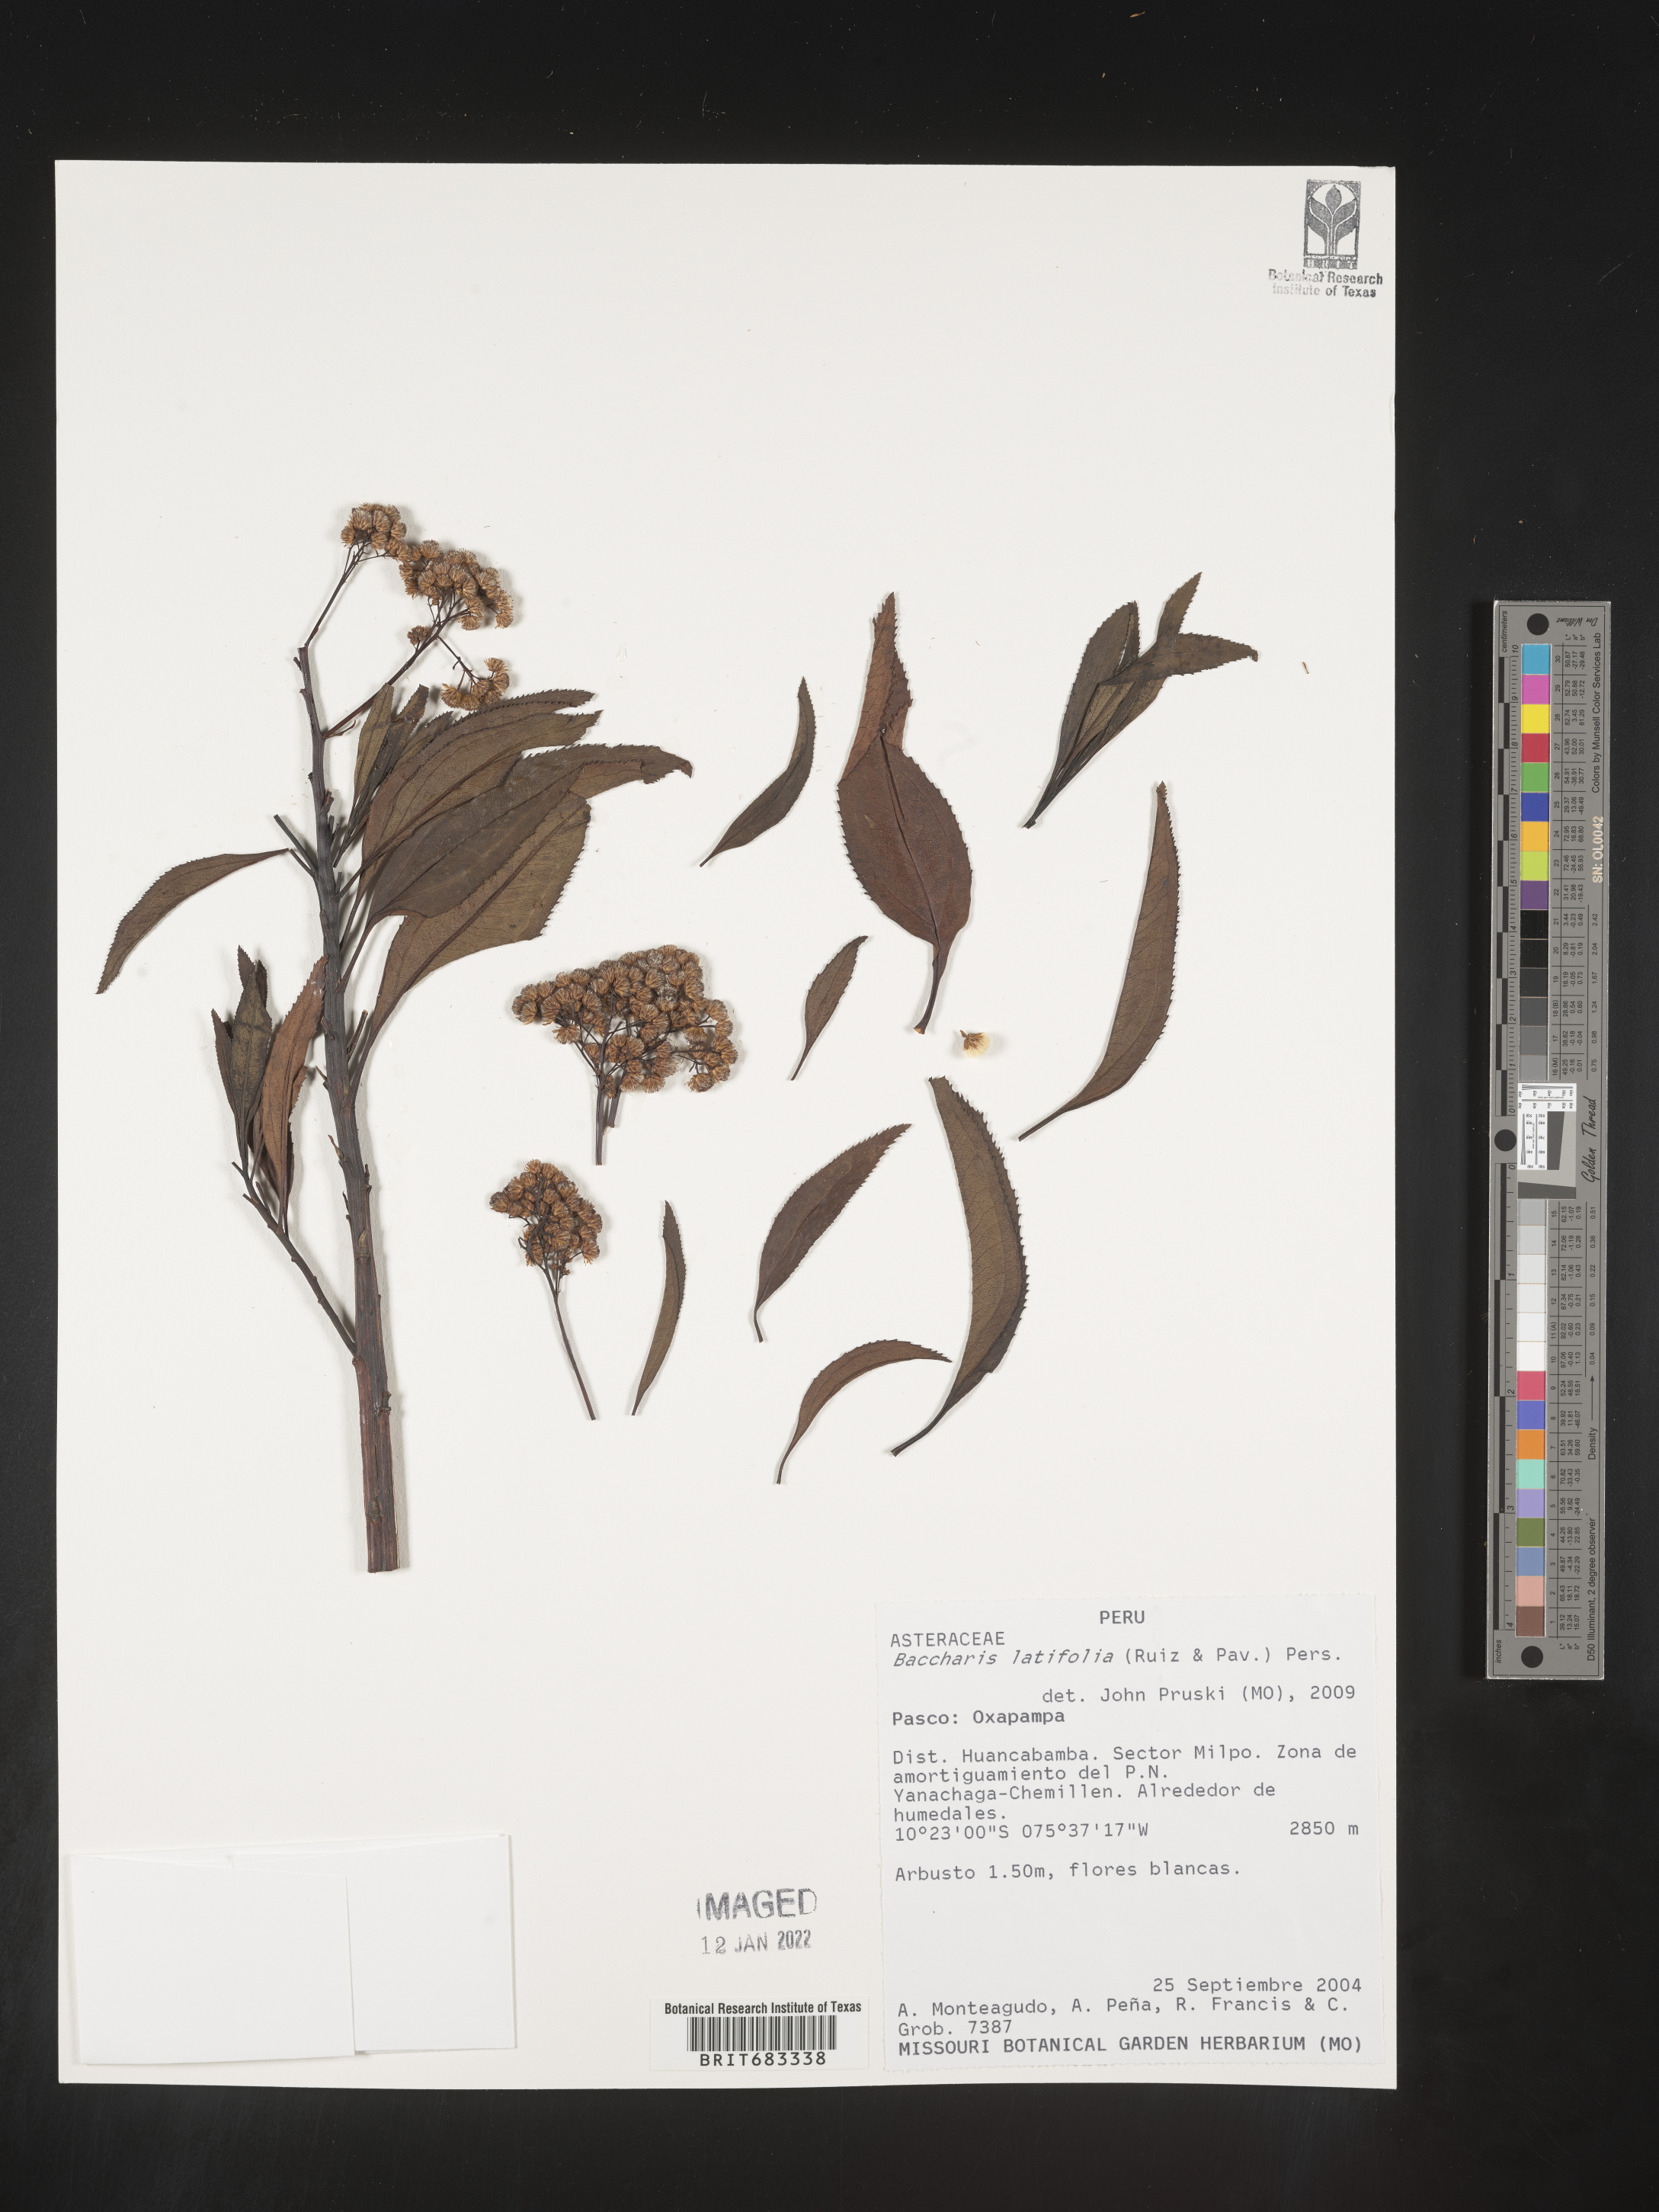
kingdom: Plantae
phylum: Tracheophyta
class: Magnoliopsida
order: Asterales
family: Asteraceae
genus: Baccharis
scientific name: Baccharis
